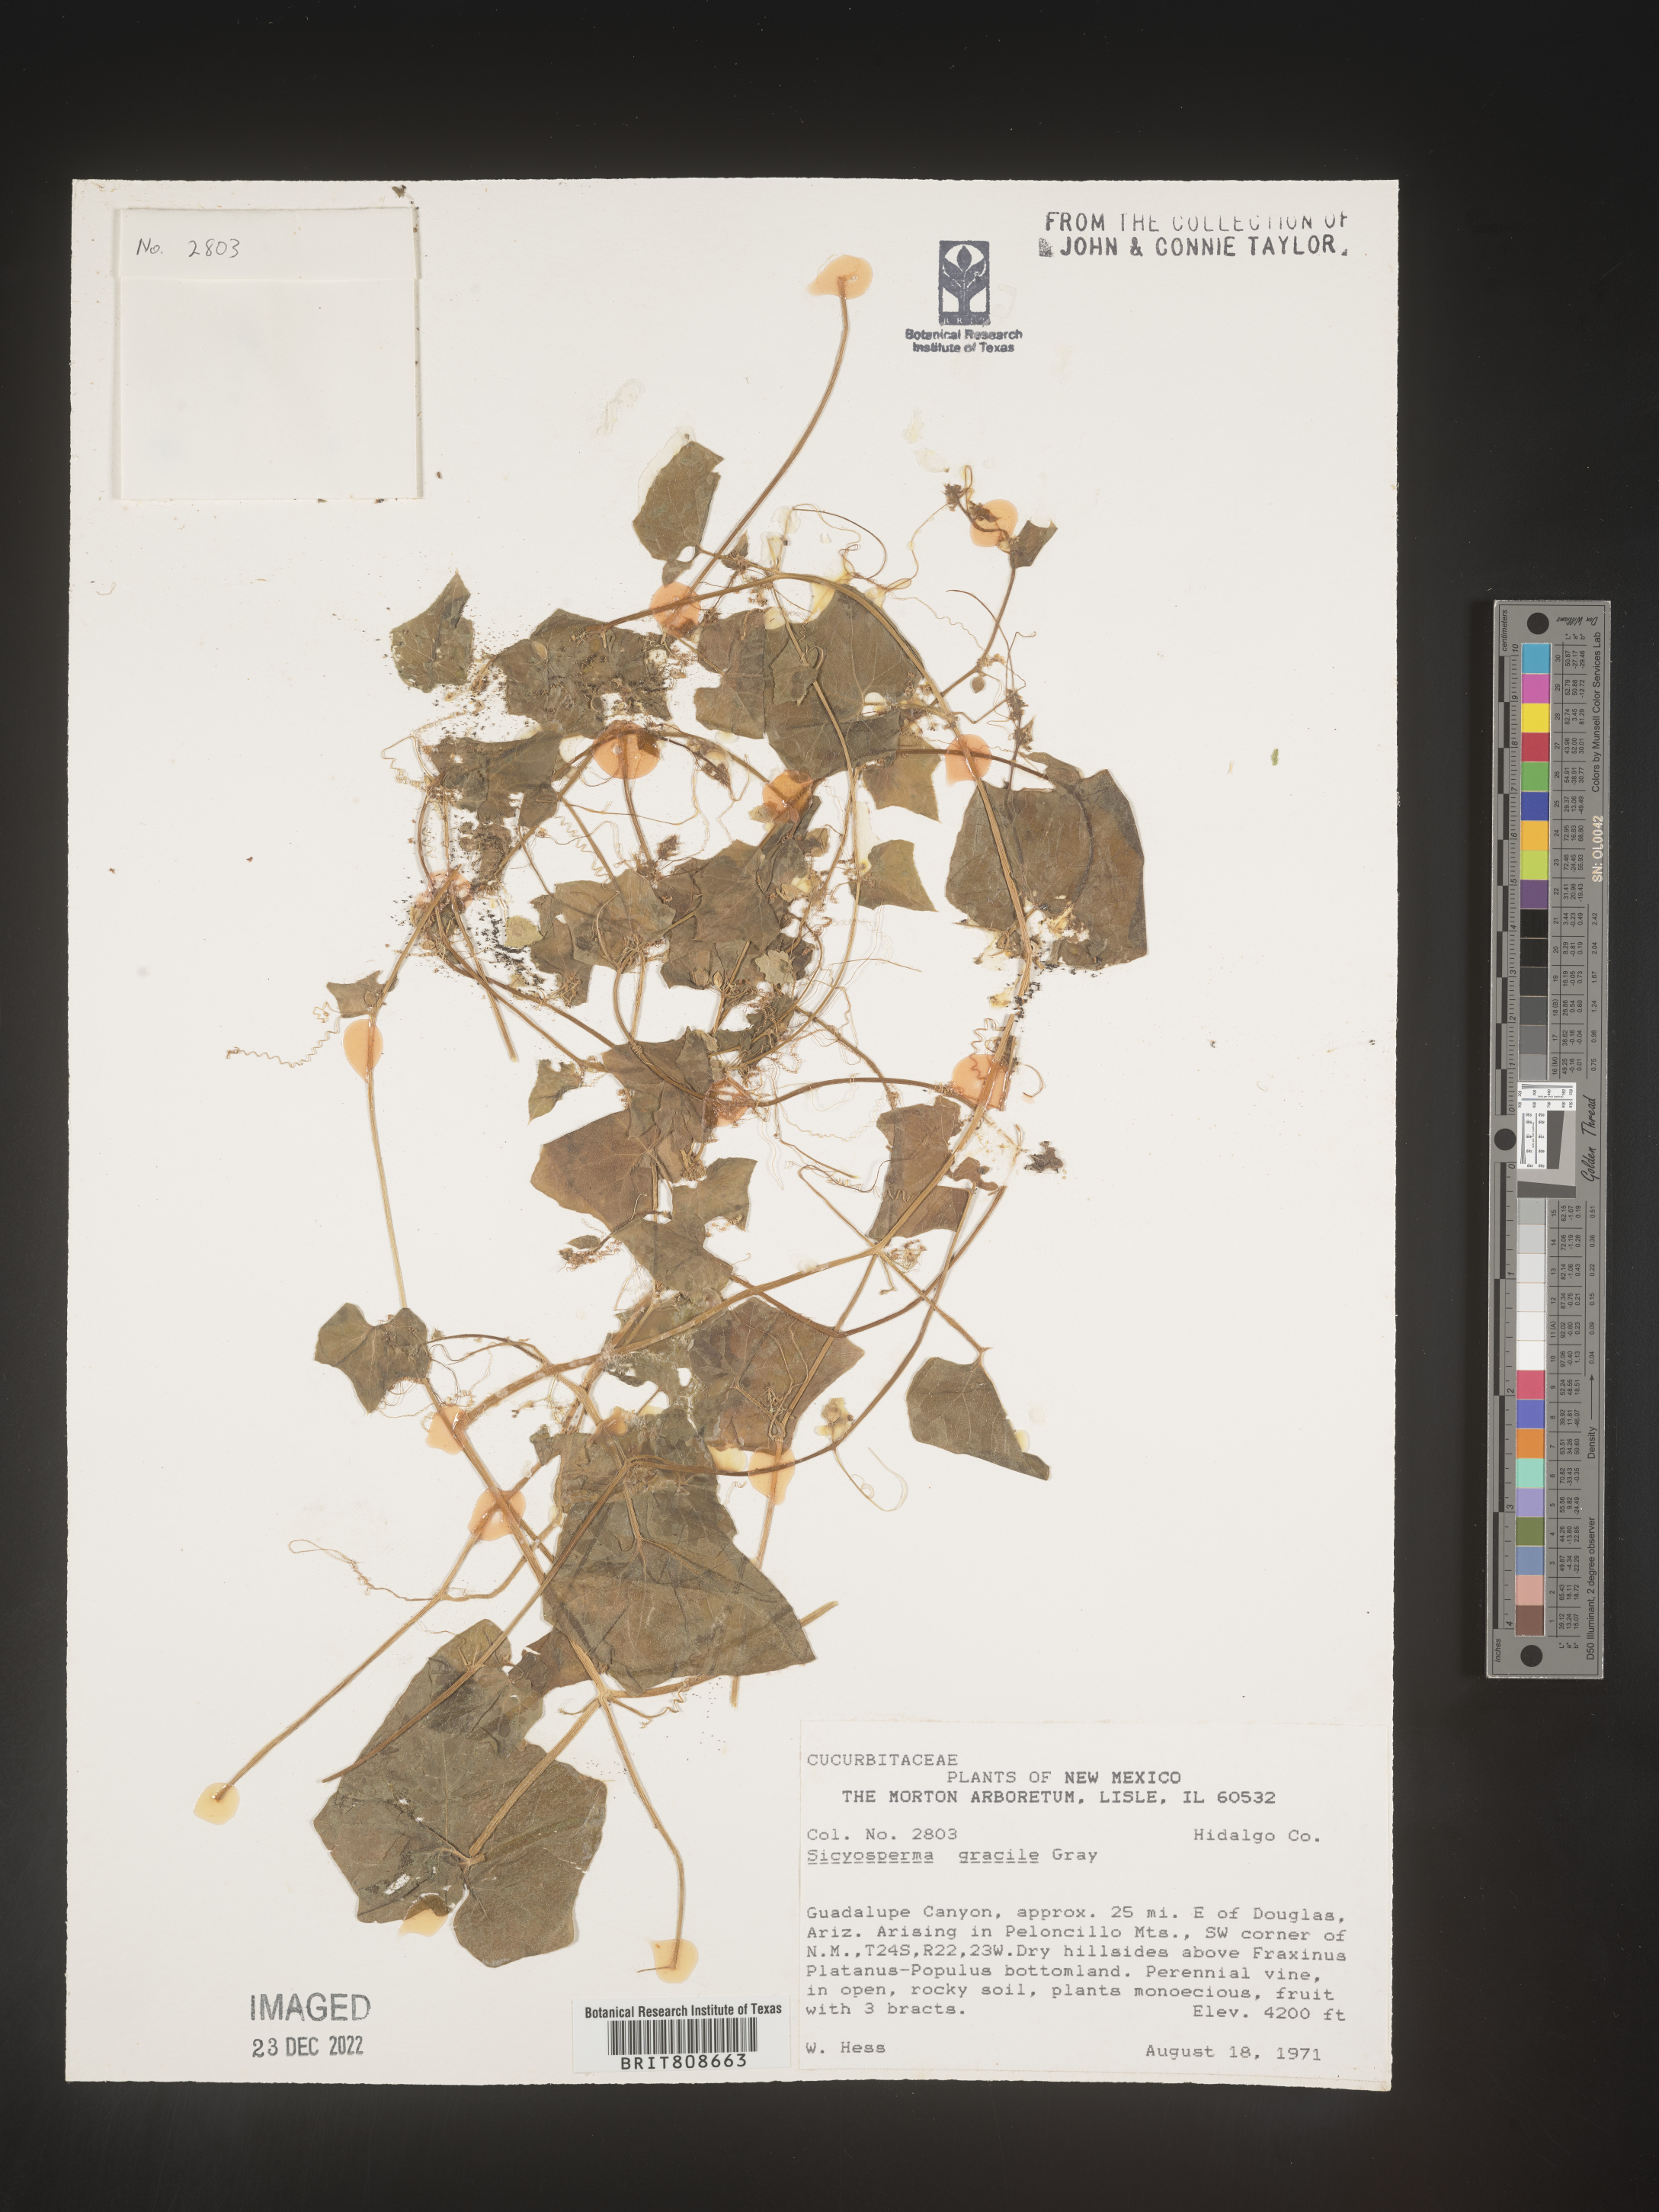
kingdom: Plantae
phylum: Tracheophyta
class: Magnoliopsida
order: Cucurbitales
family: Cucurbitaceae
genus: Sicyosperma
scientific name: Sicyosperma gracile
